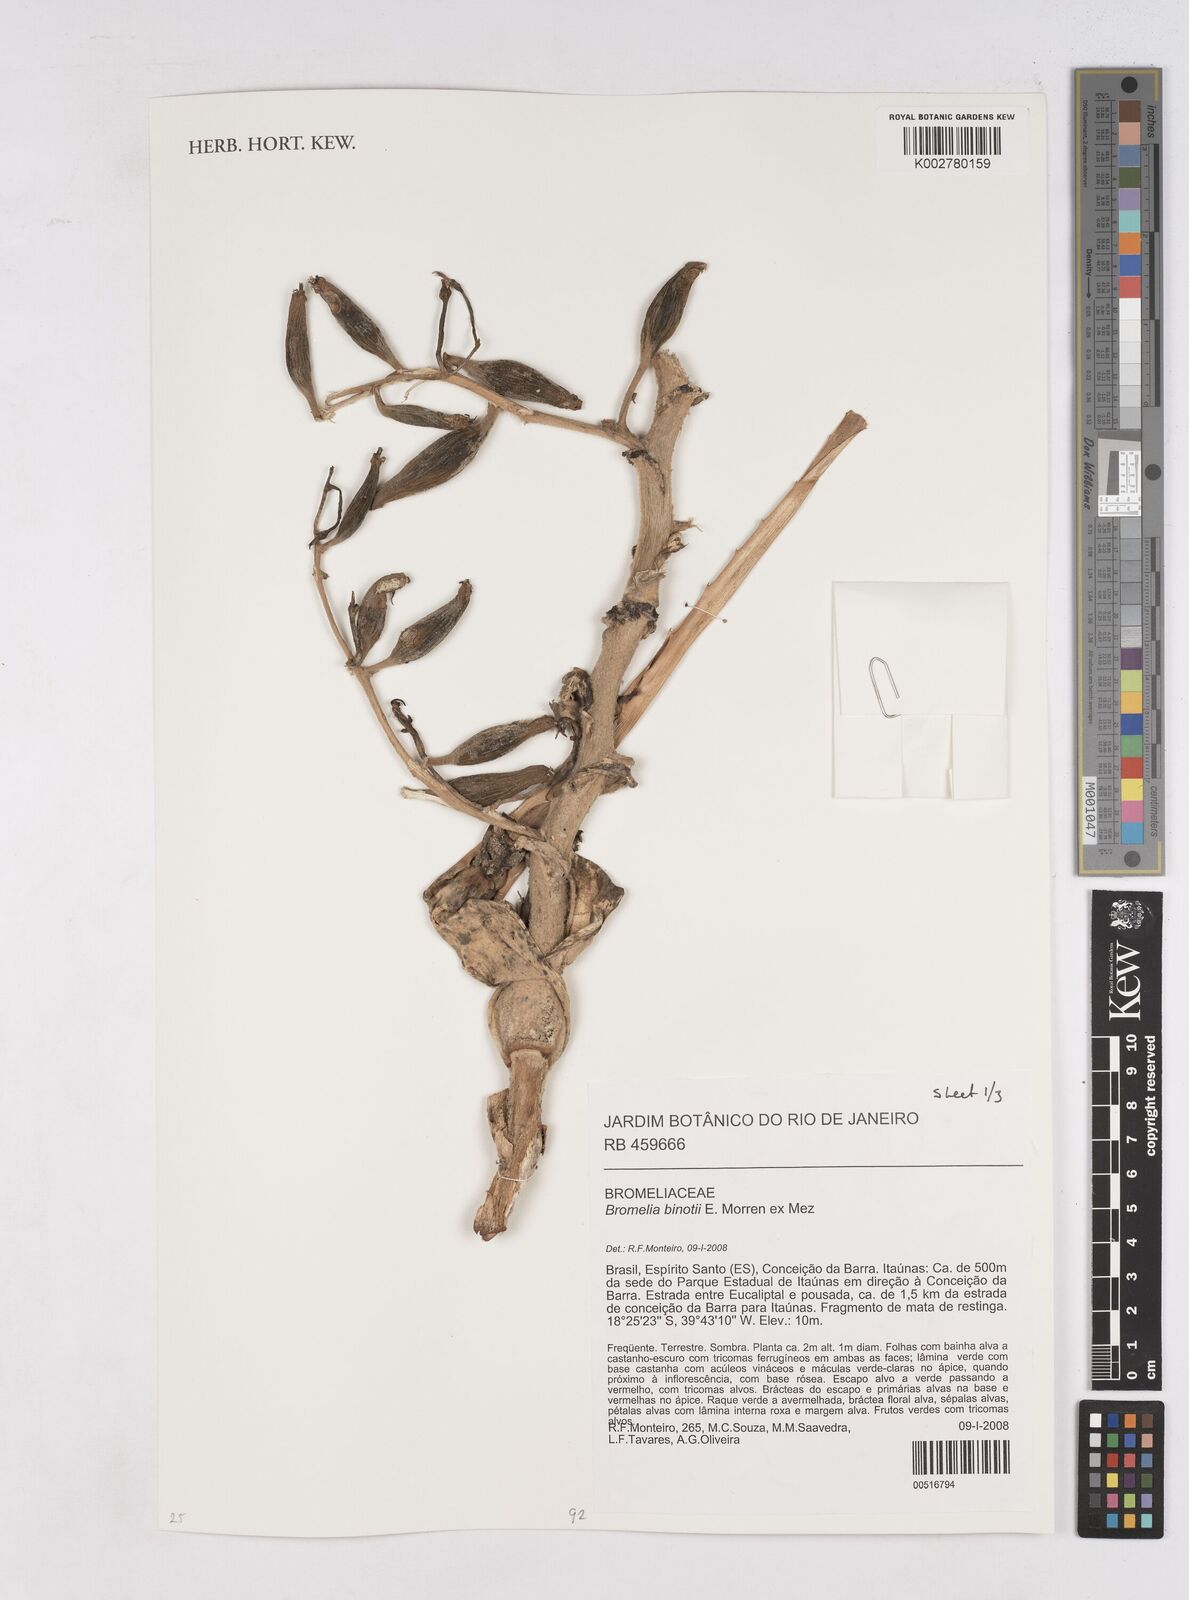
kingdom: Plantae
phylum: Tracheophyta
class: Liliopsida
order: Poales
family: Bromeliaceae
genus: Bromelia
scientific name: Bromelia binotii
